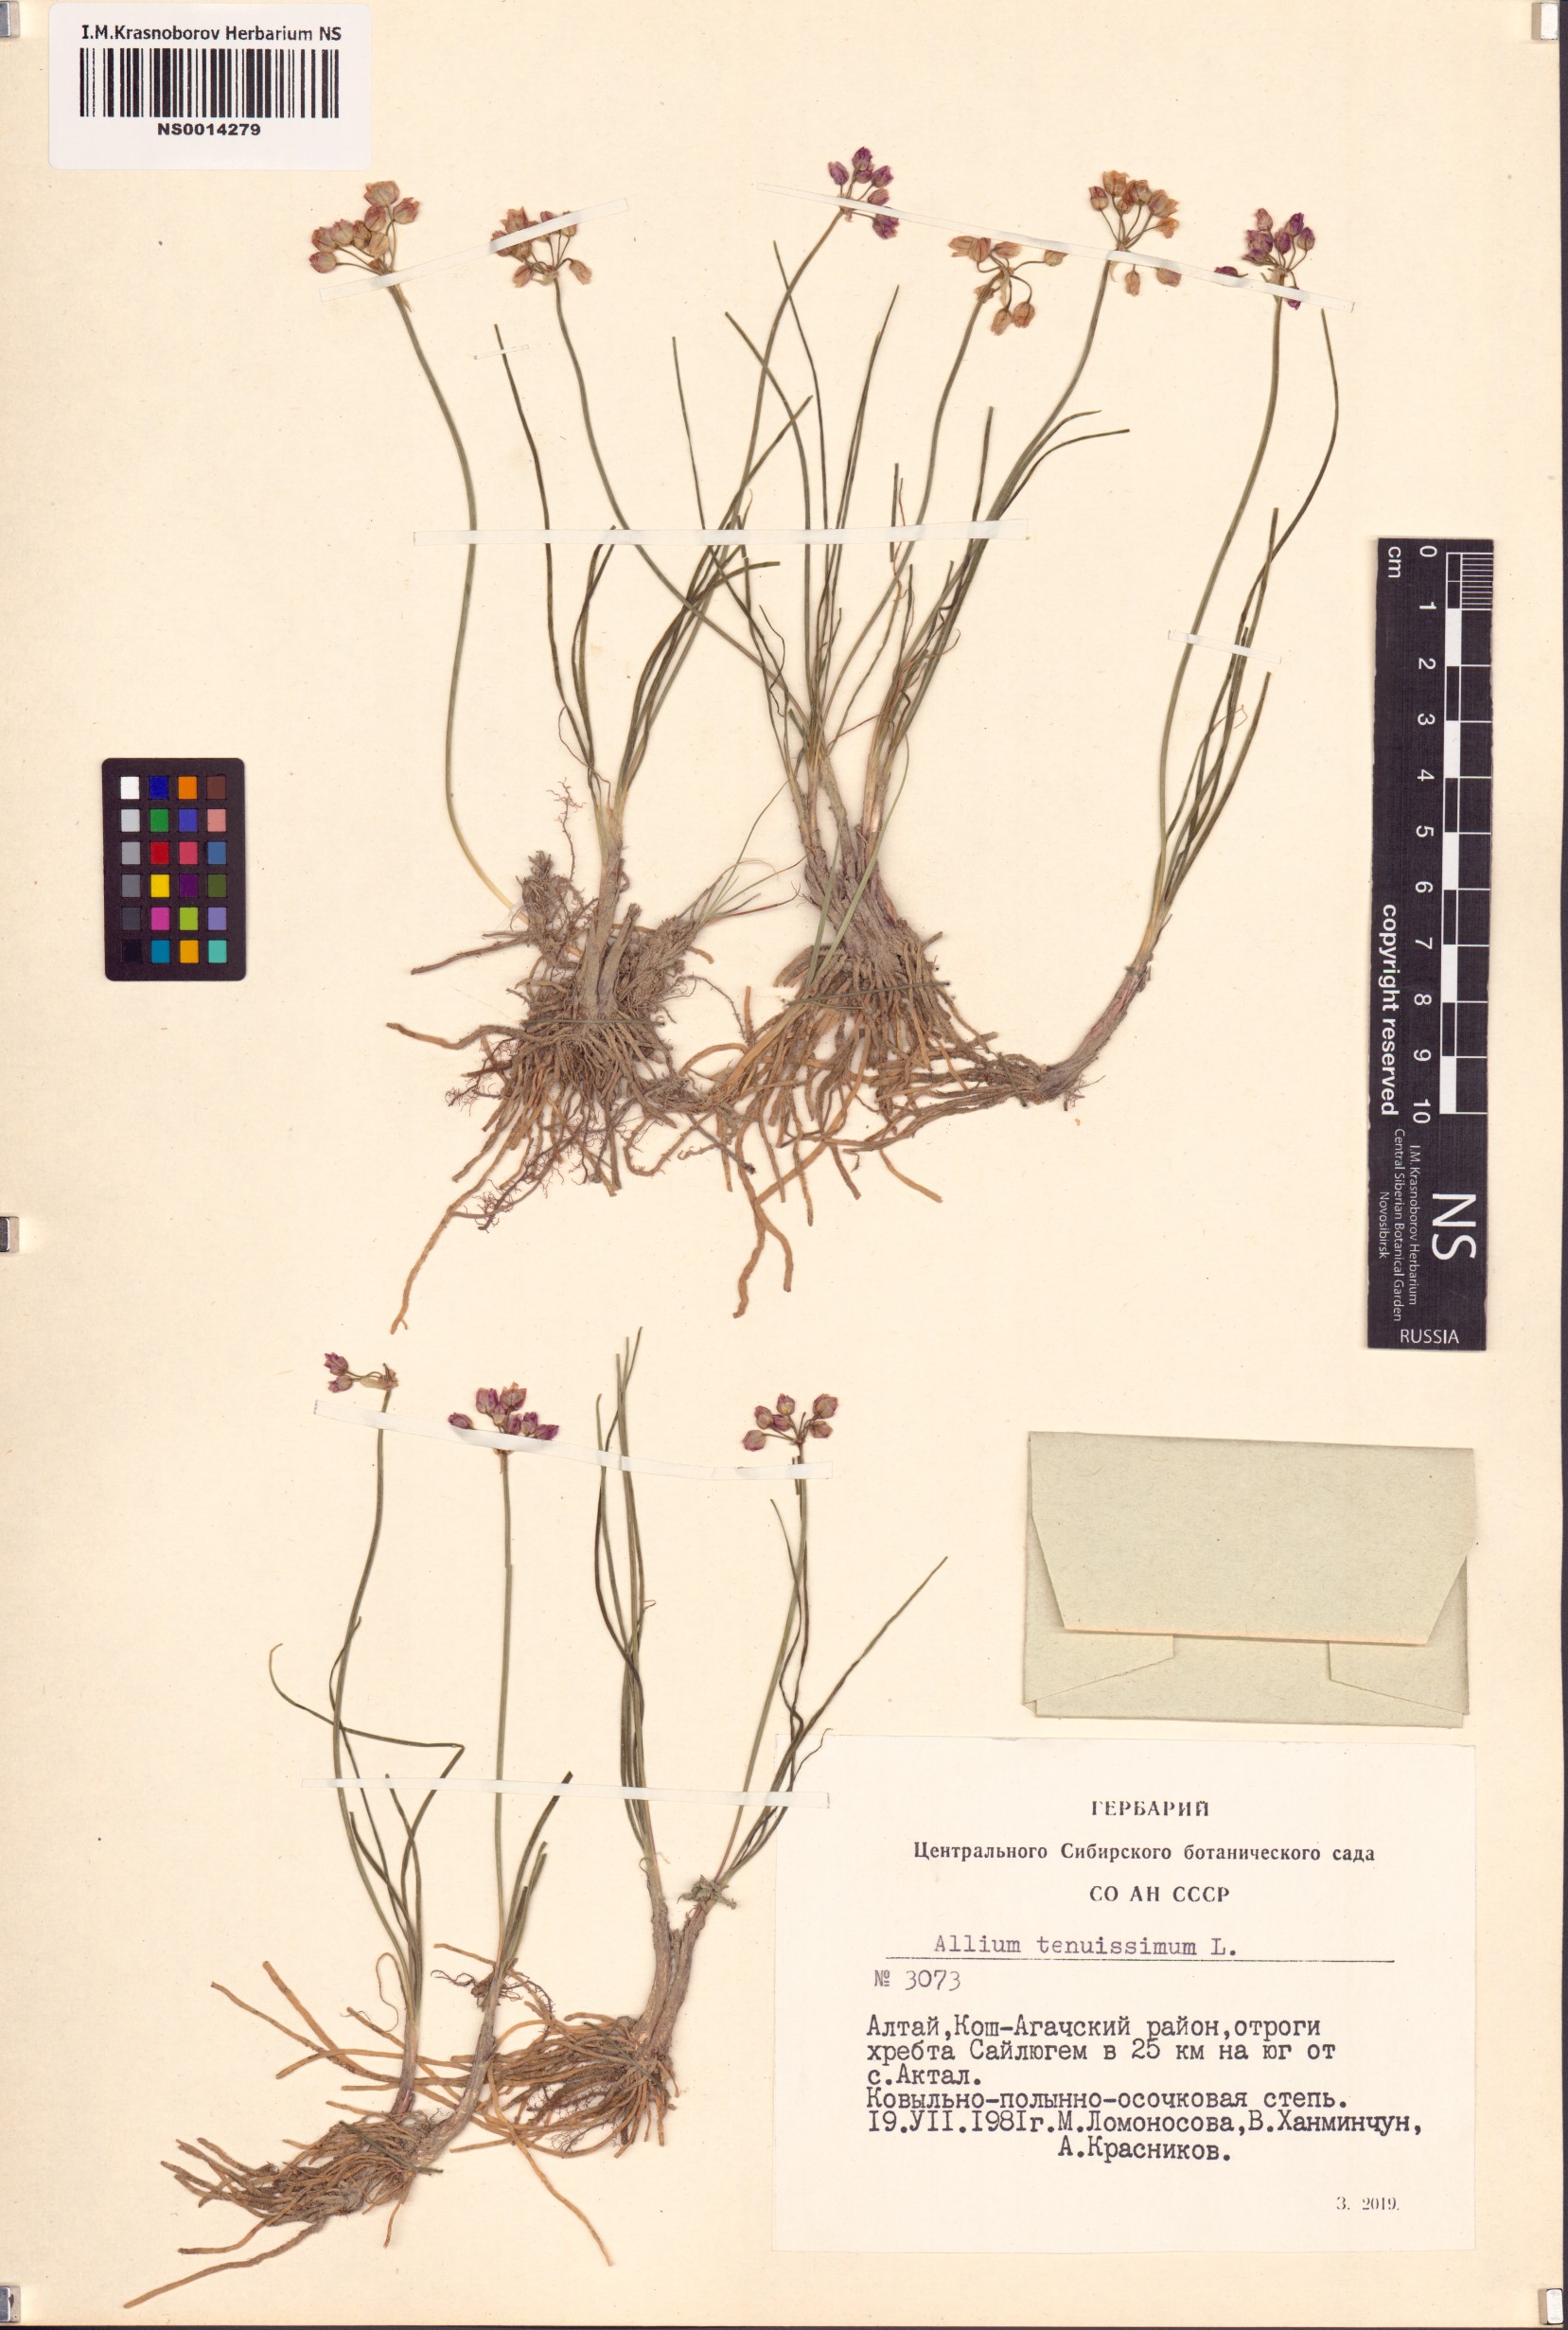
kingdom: Plantae
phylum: Tracheophyta
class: Liliopsida
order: Asparagales
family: Amaryllidaceae
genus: Allium
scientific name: Allium tenuissimum
